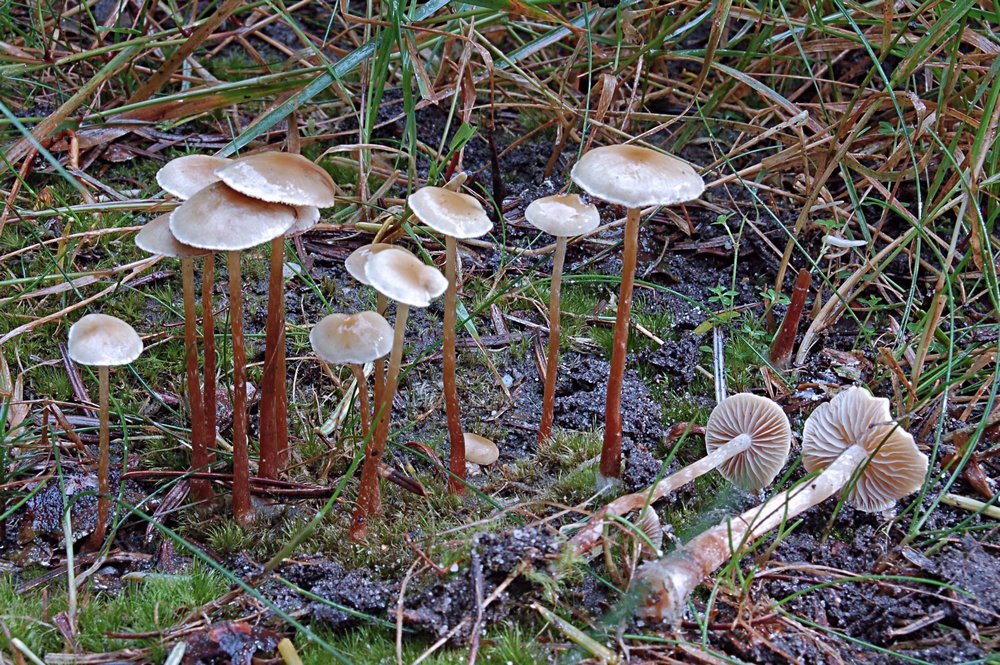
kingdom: Fungi
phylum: Basidiomycota
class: Agaricomycetes
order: Agaricales
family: Strophariaceae
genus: Hypholoma
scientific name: Hypholoma elongatum
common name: slank svovlhat
